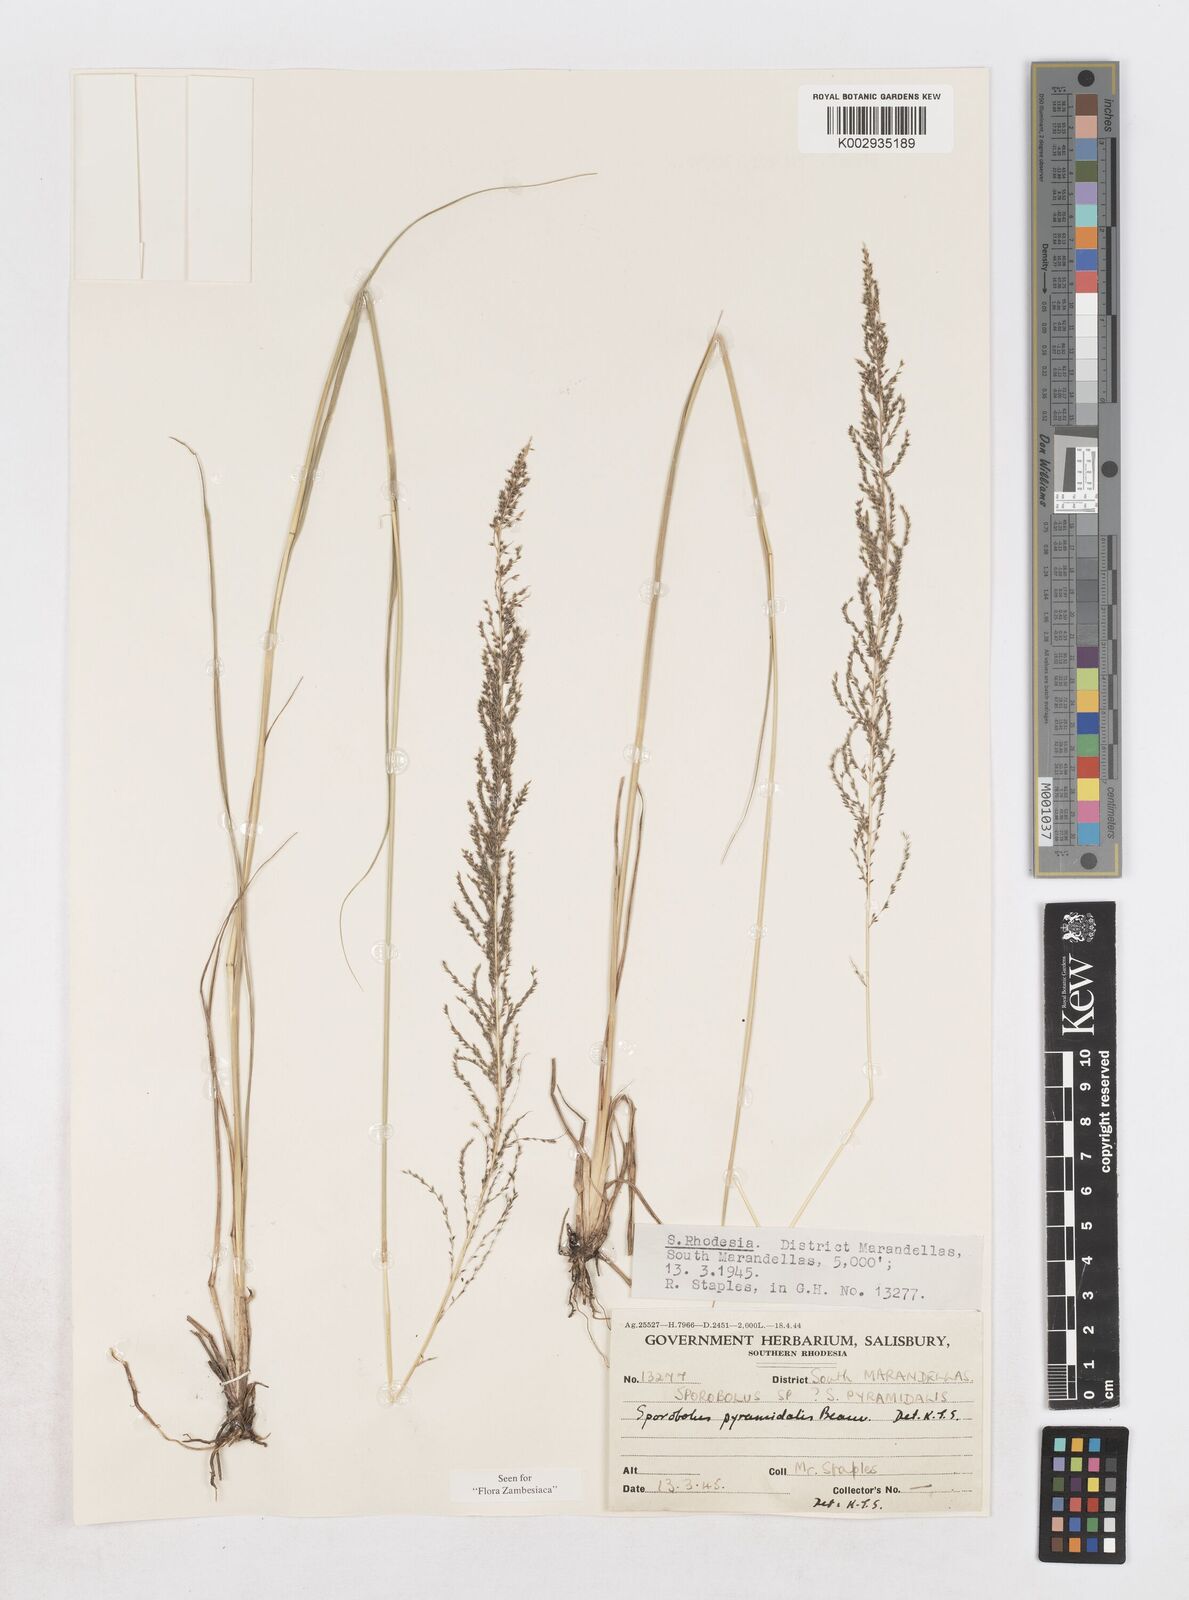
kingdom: Plantae
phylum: Tracheophyta
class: Liliopsida
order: Poales
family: Poaceae
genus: Sporobolus
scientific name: Sporobolus pyramidalis
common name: West indian dropseed
